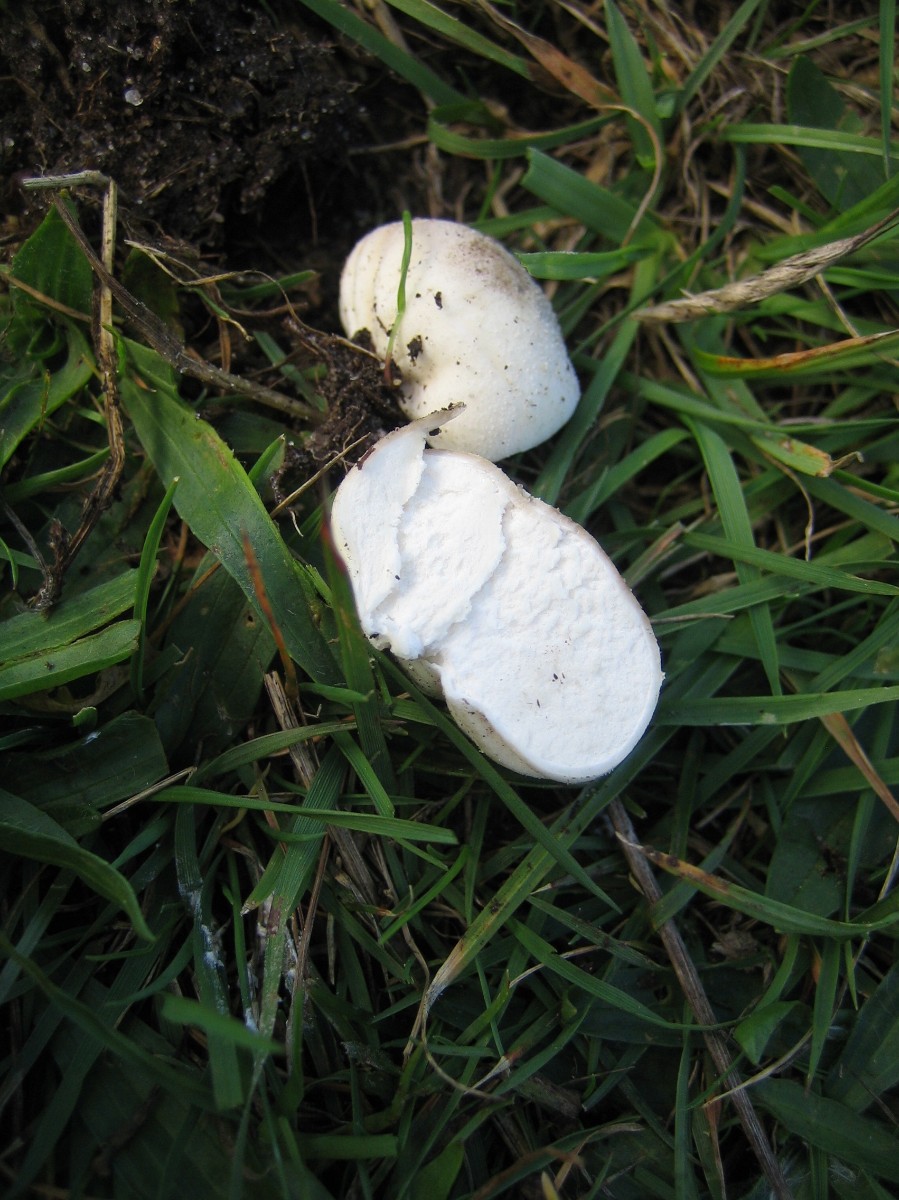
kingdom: Fungi
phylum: Basidiomycota
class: Agaricomycetes
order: Agaricales
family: Lycoperdaceae
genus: Bovista
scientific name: Bovista
